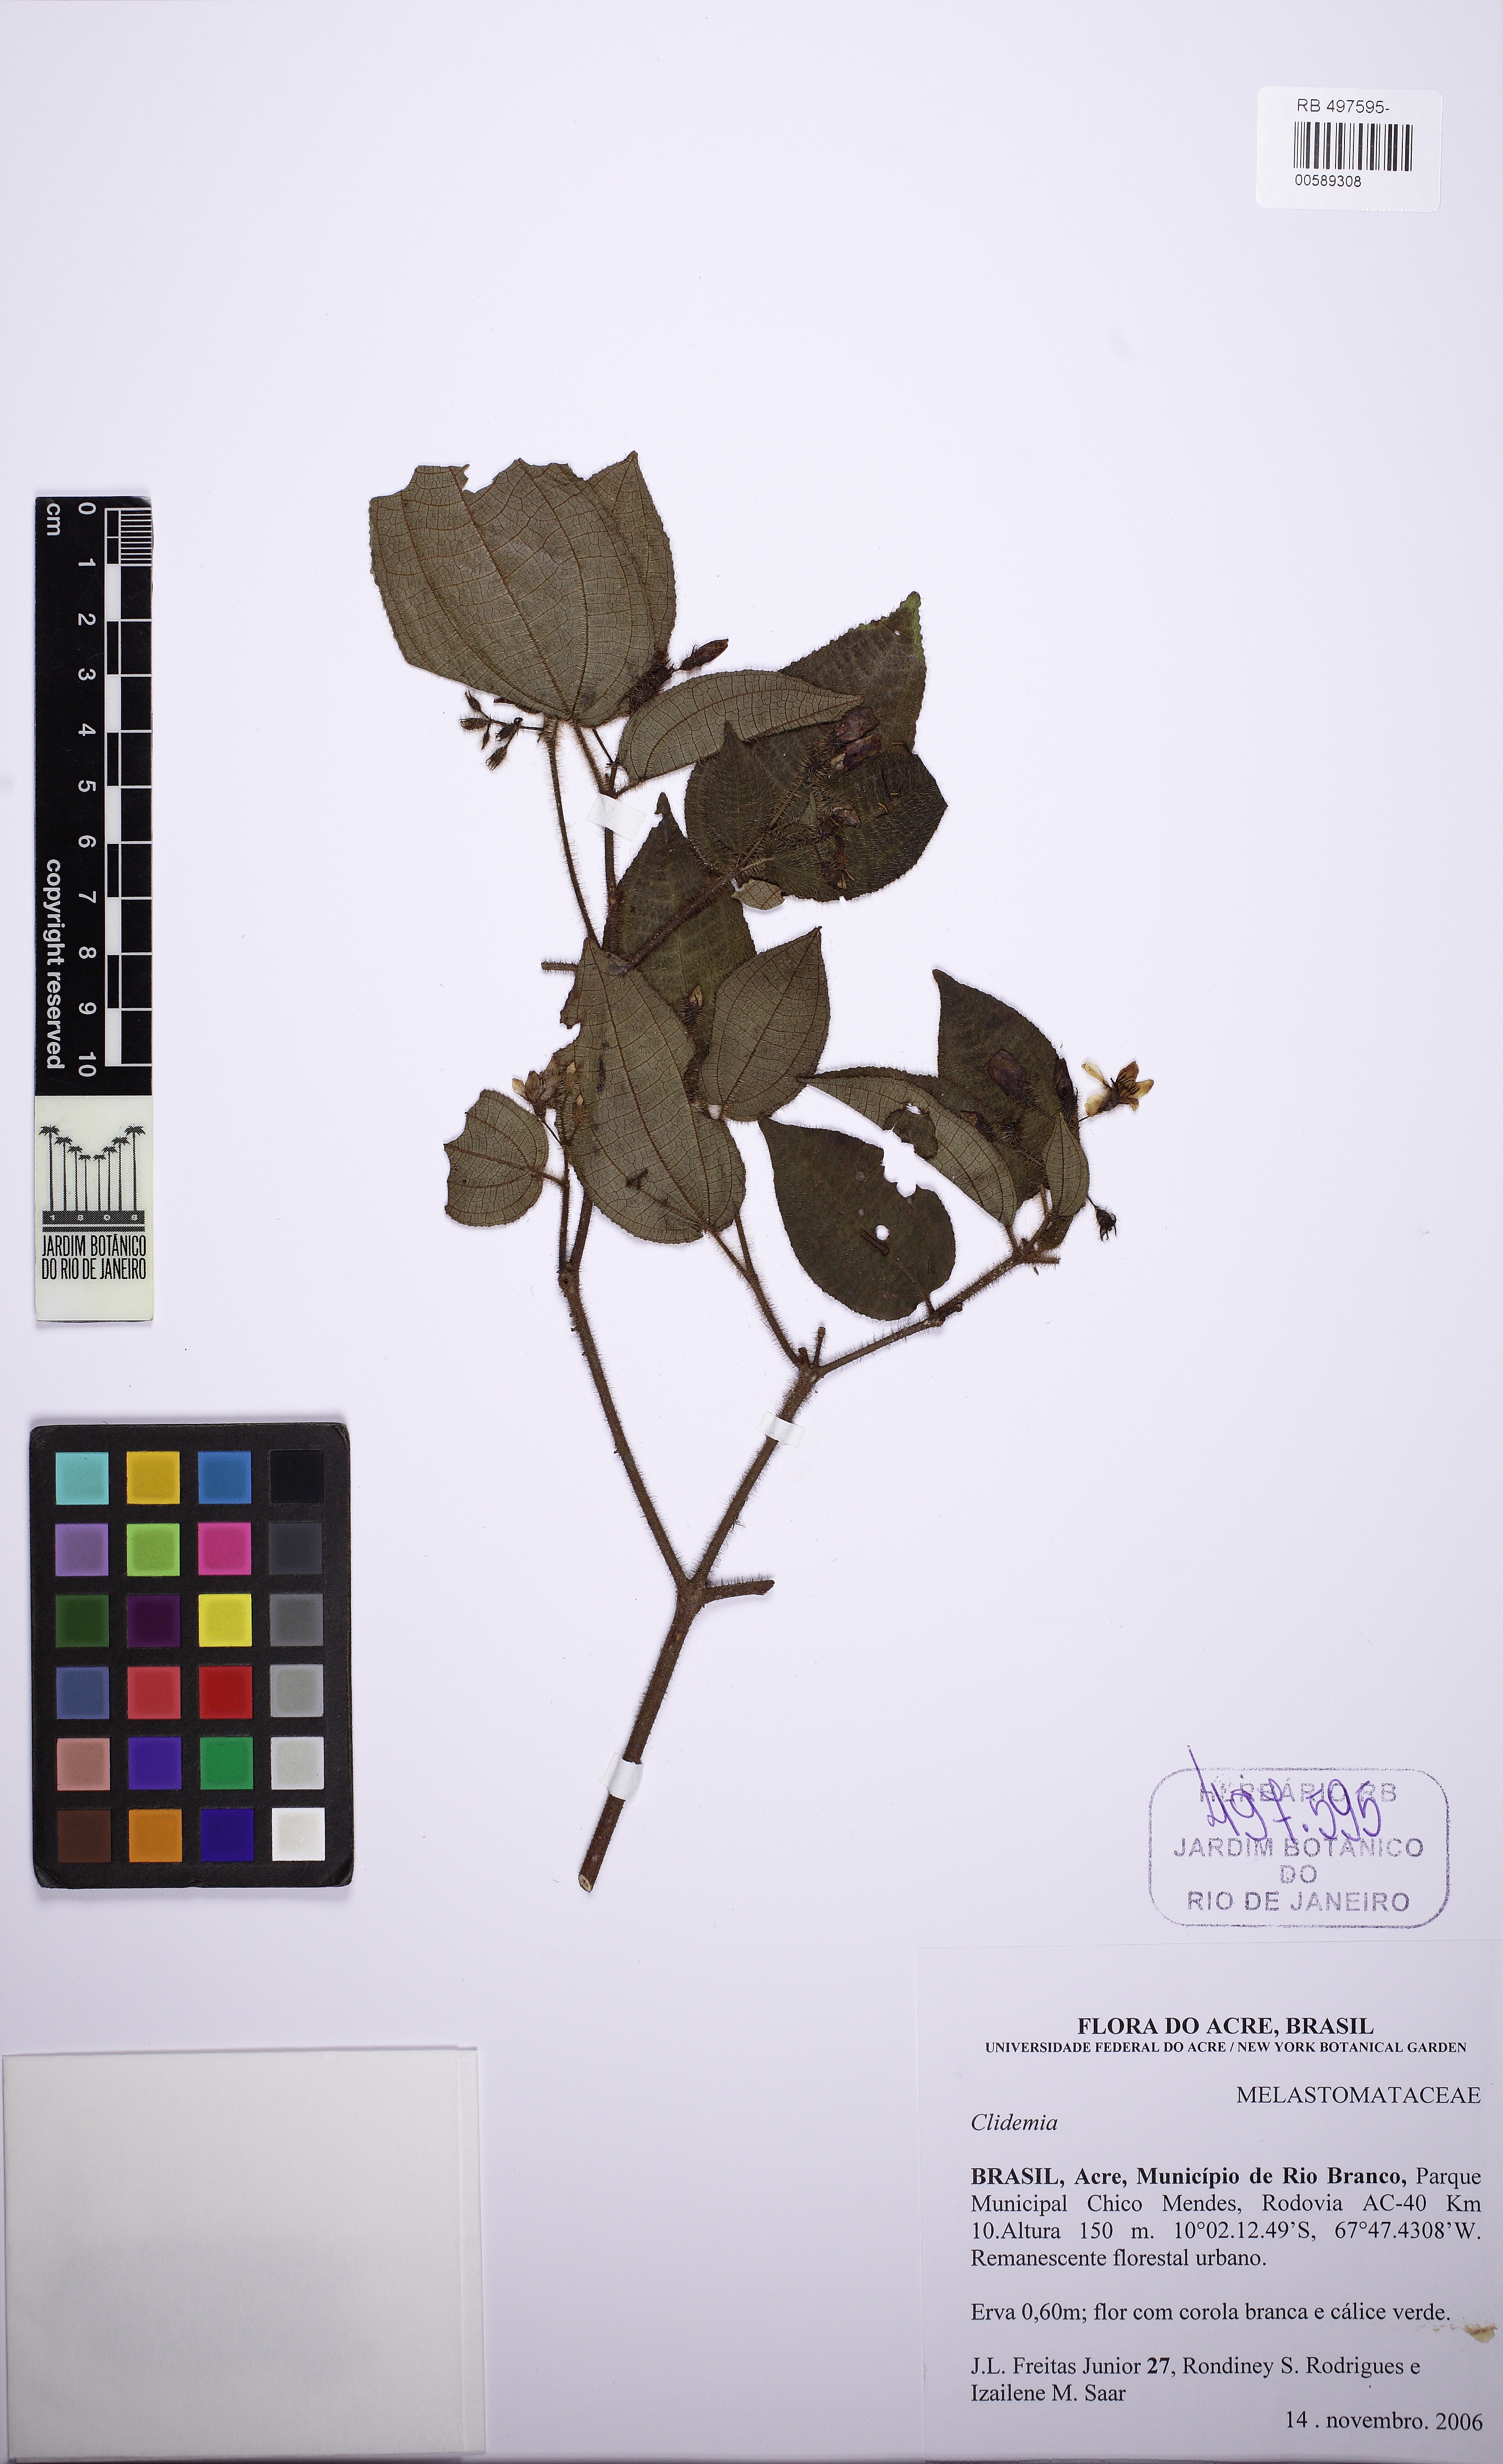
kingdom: Plantae
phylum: Tracheophyta
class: Magnoliopsida
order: Myrtales
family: Melastomataceae
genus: Miconia
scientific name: Miconia crenata
